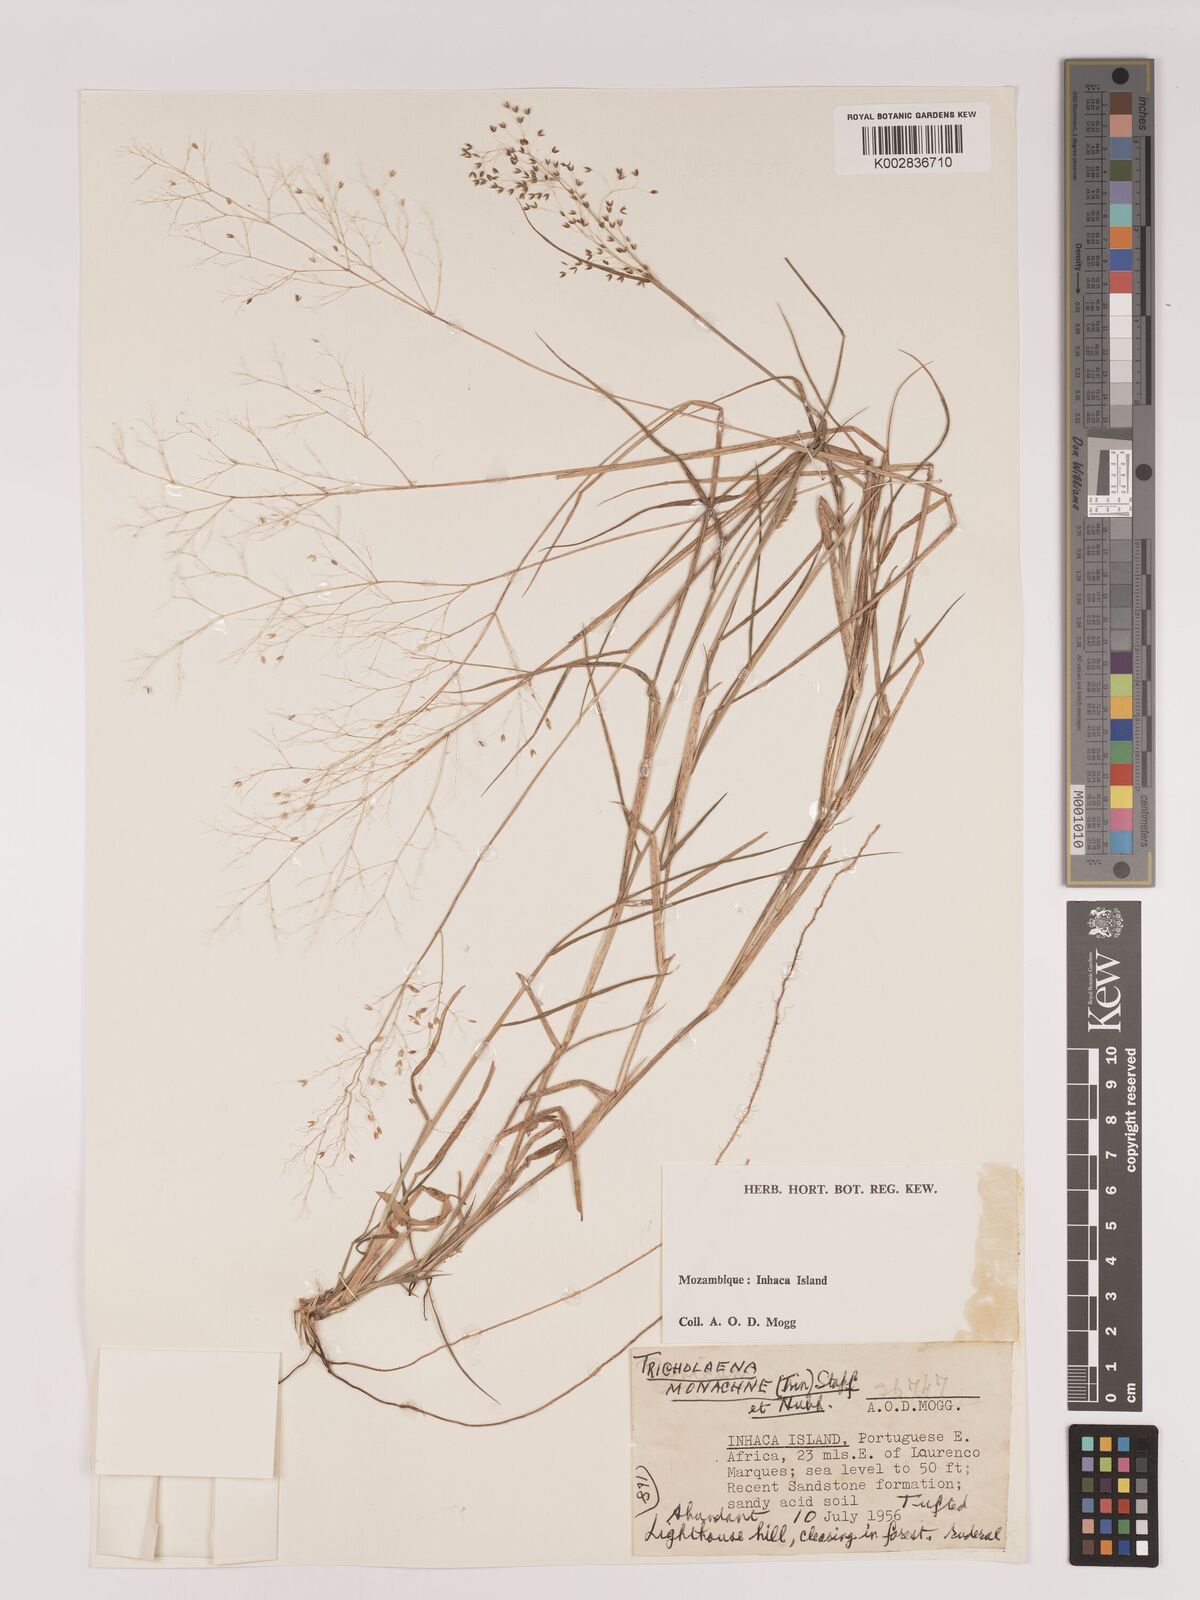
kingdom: Plantae
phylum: Tracheophyta
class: Liliopsida
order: Poales
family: Poaceae
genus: Tricholaena
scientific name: Tricholaena monachne
